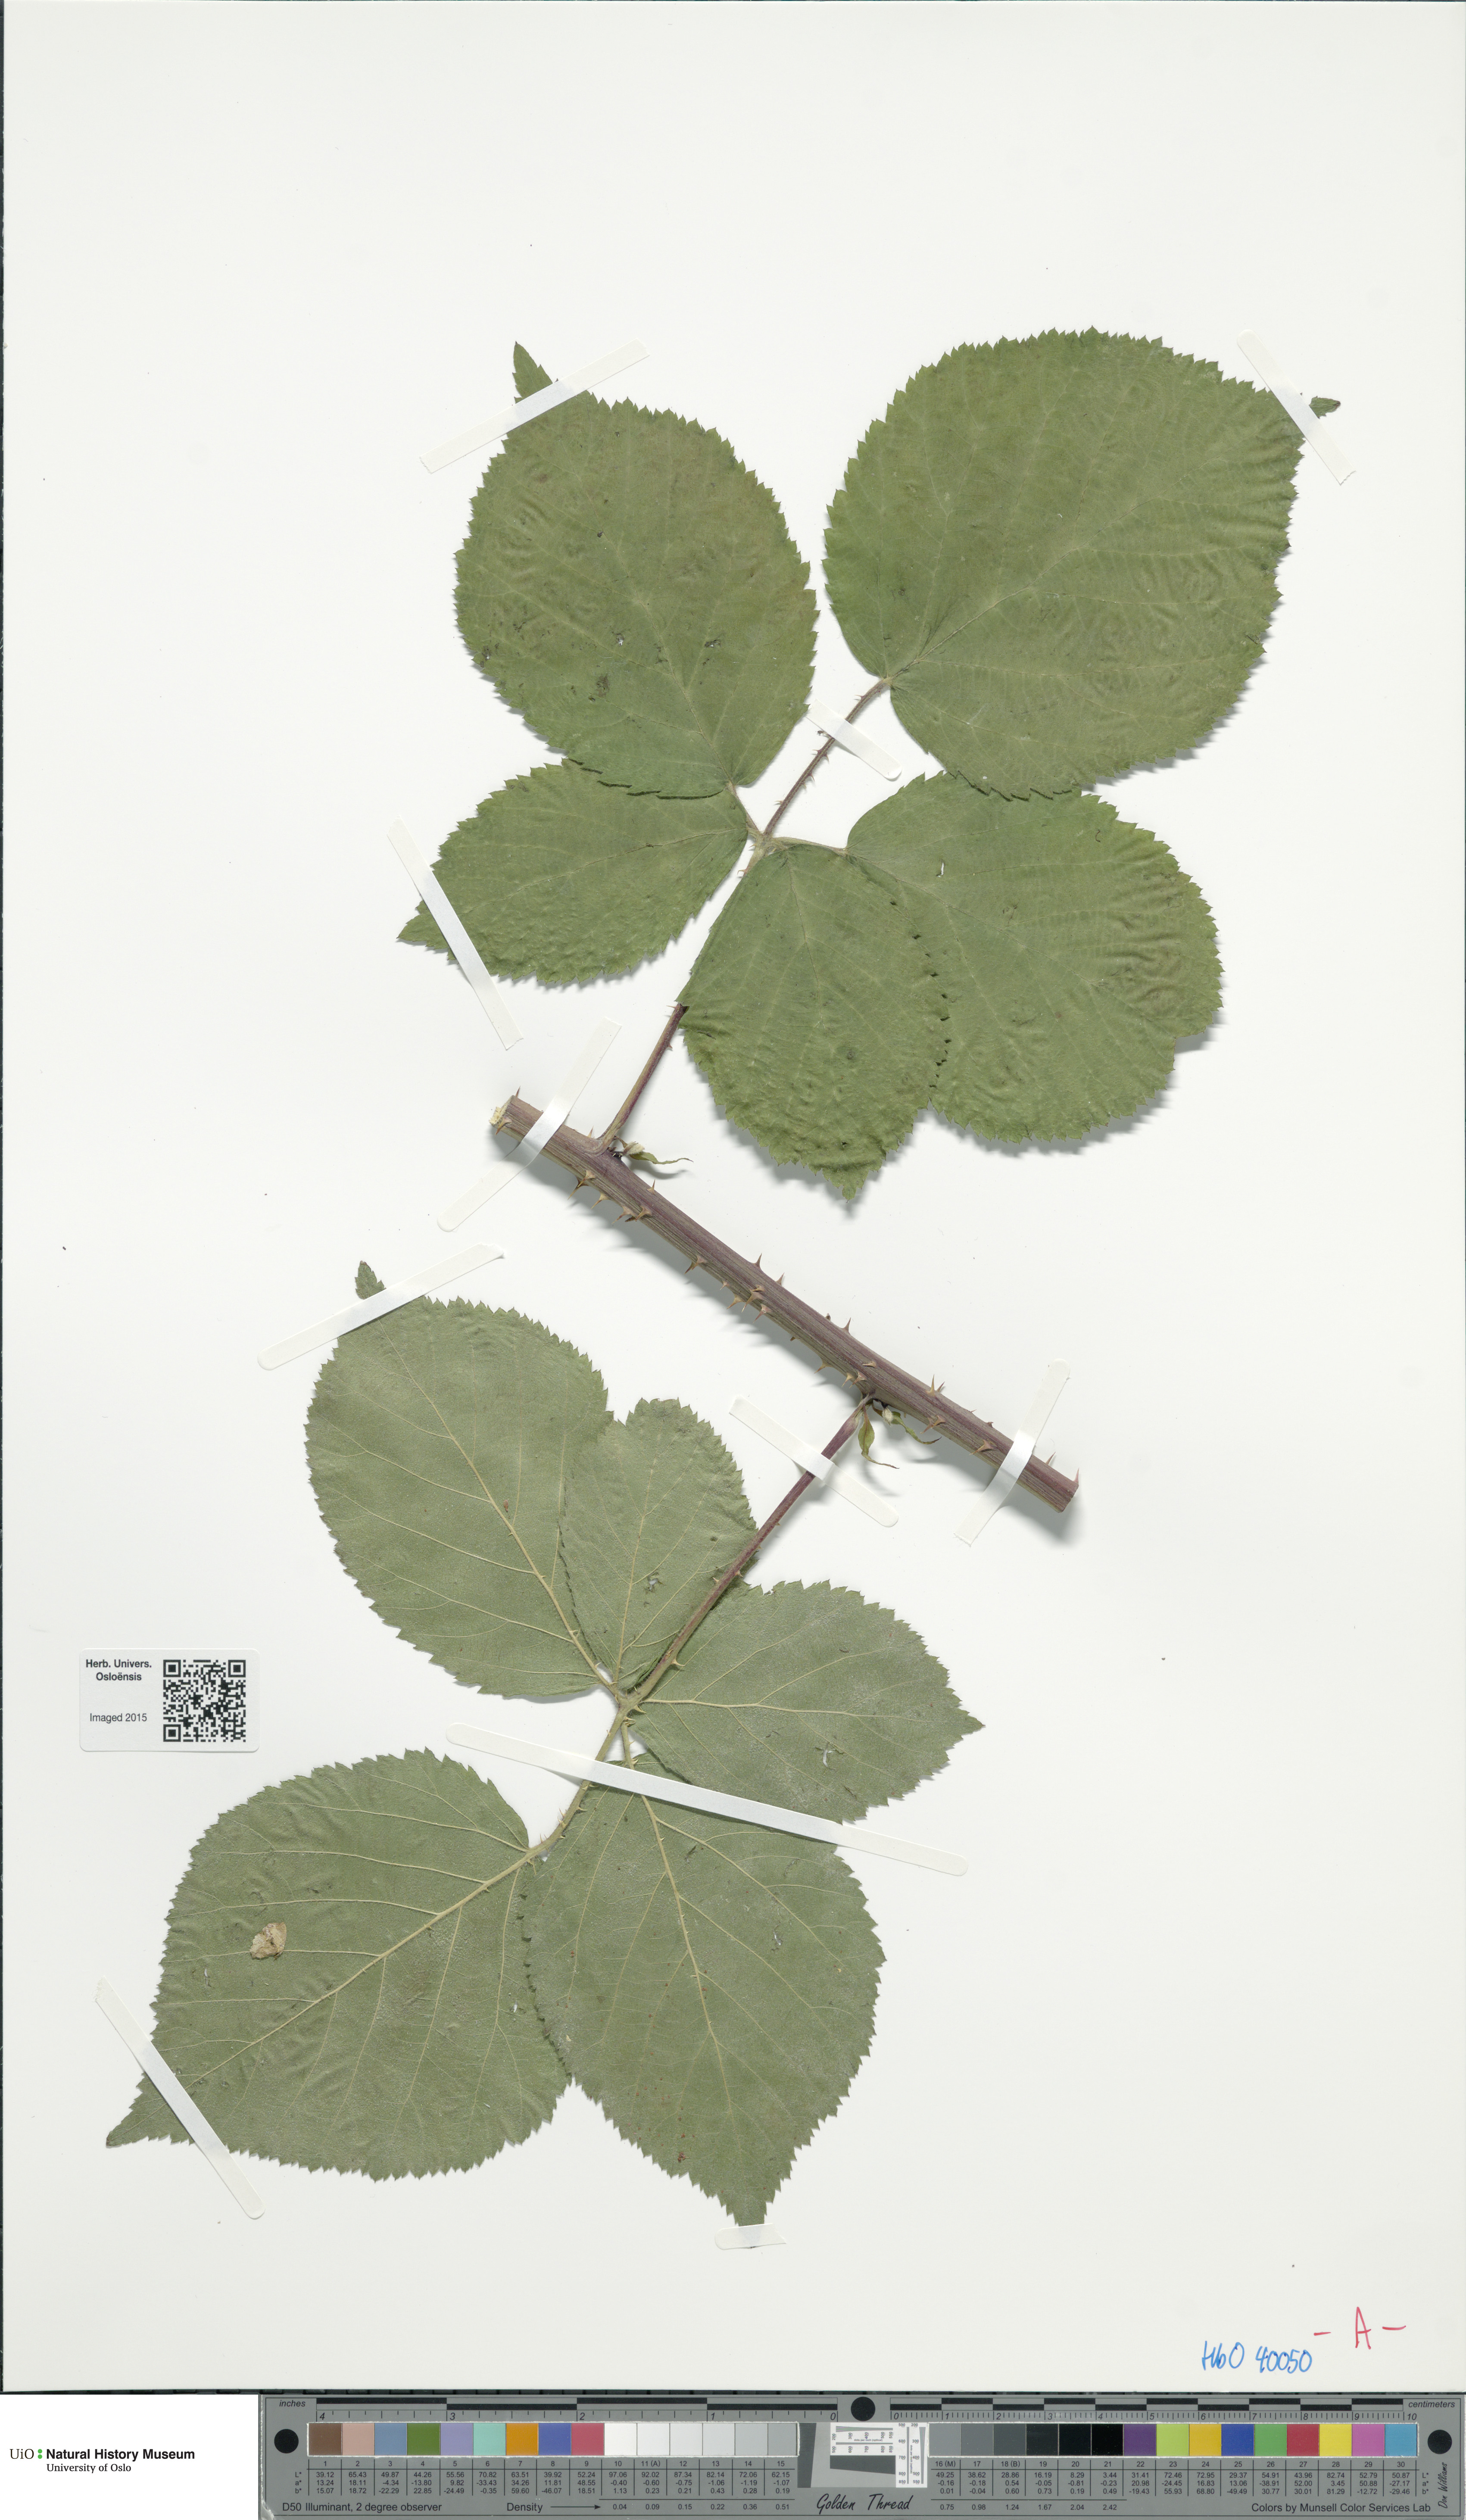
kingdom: Plantae
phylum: Tracheophyta
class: Magnoliopsida
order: Rosales
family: Rosaceae
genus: Rubus
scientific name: Rubus mortensenii
